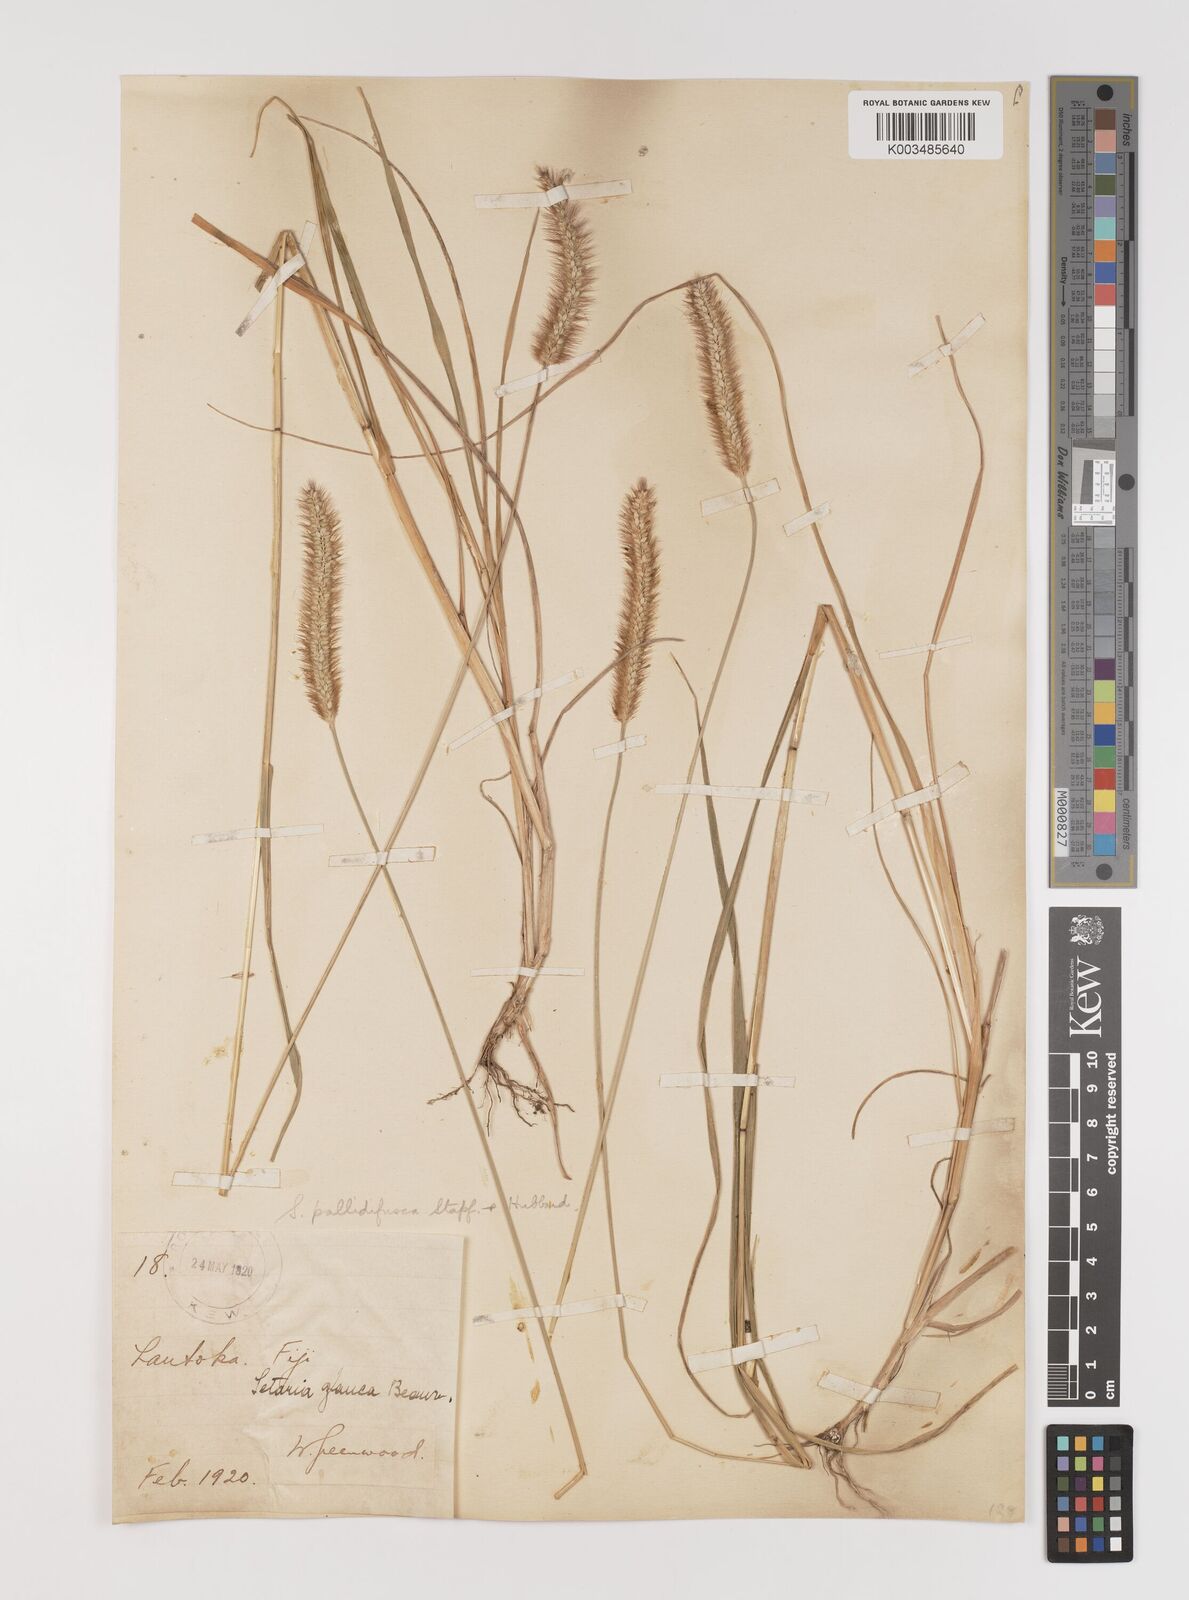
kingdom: Plantae
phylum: Tracheophyta
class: Liliopsida
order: Poales
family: Poaceae
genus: Setaria
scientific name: Setaria pumila
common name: Yellow bristle-grass
